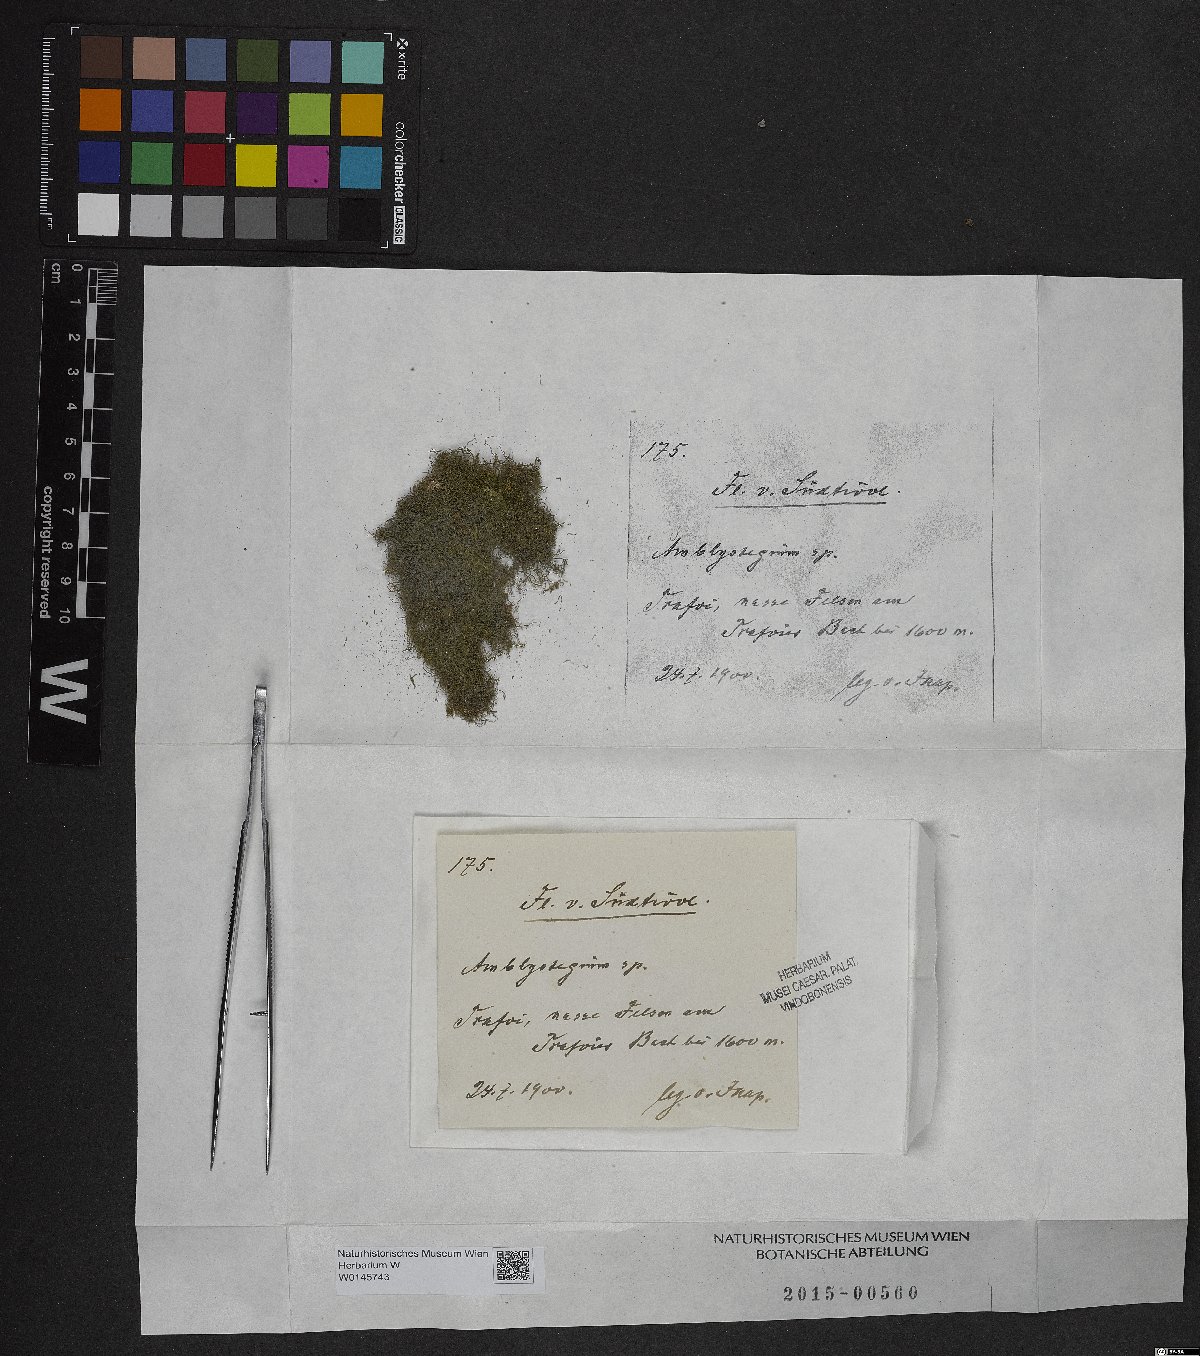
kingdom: Plantae
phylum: Bryophyta
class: Bryopsida
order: Hypnales
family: Amblystegiaceae
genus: Amblystegium
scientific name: Amblystegium
